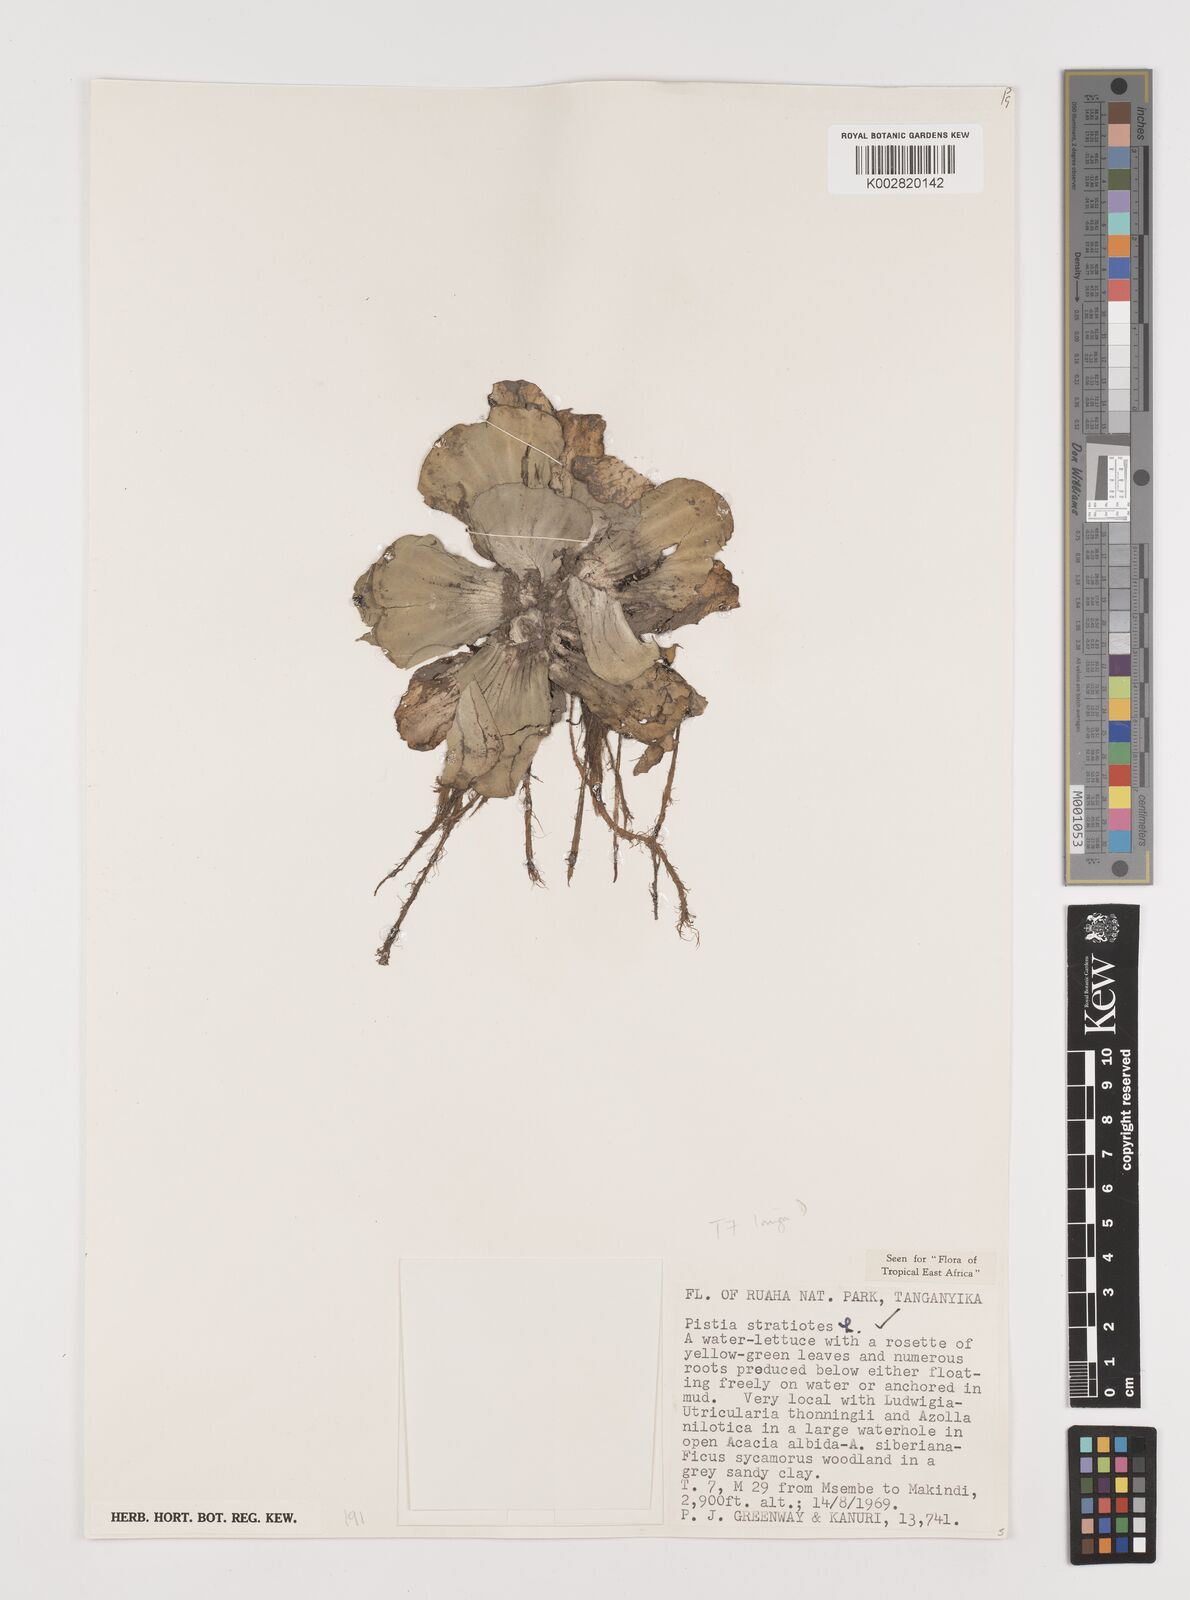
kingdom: Plantae
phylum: Tracheophyta
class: Liliopsida
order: Alismatales
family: Araceae
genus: Pistia
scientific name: Pistia stratiotes
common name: Water lettuce
